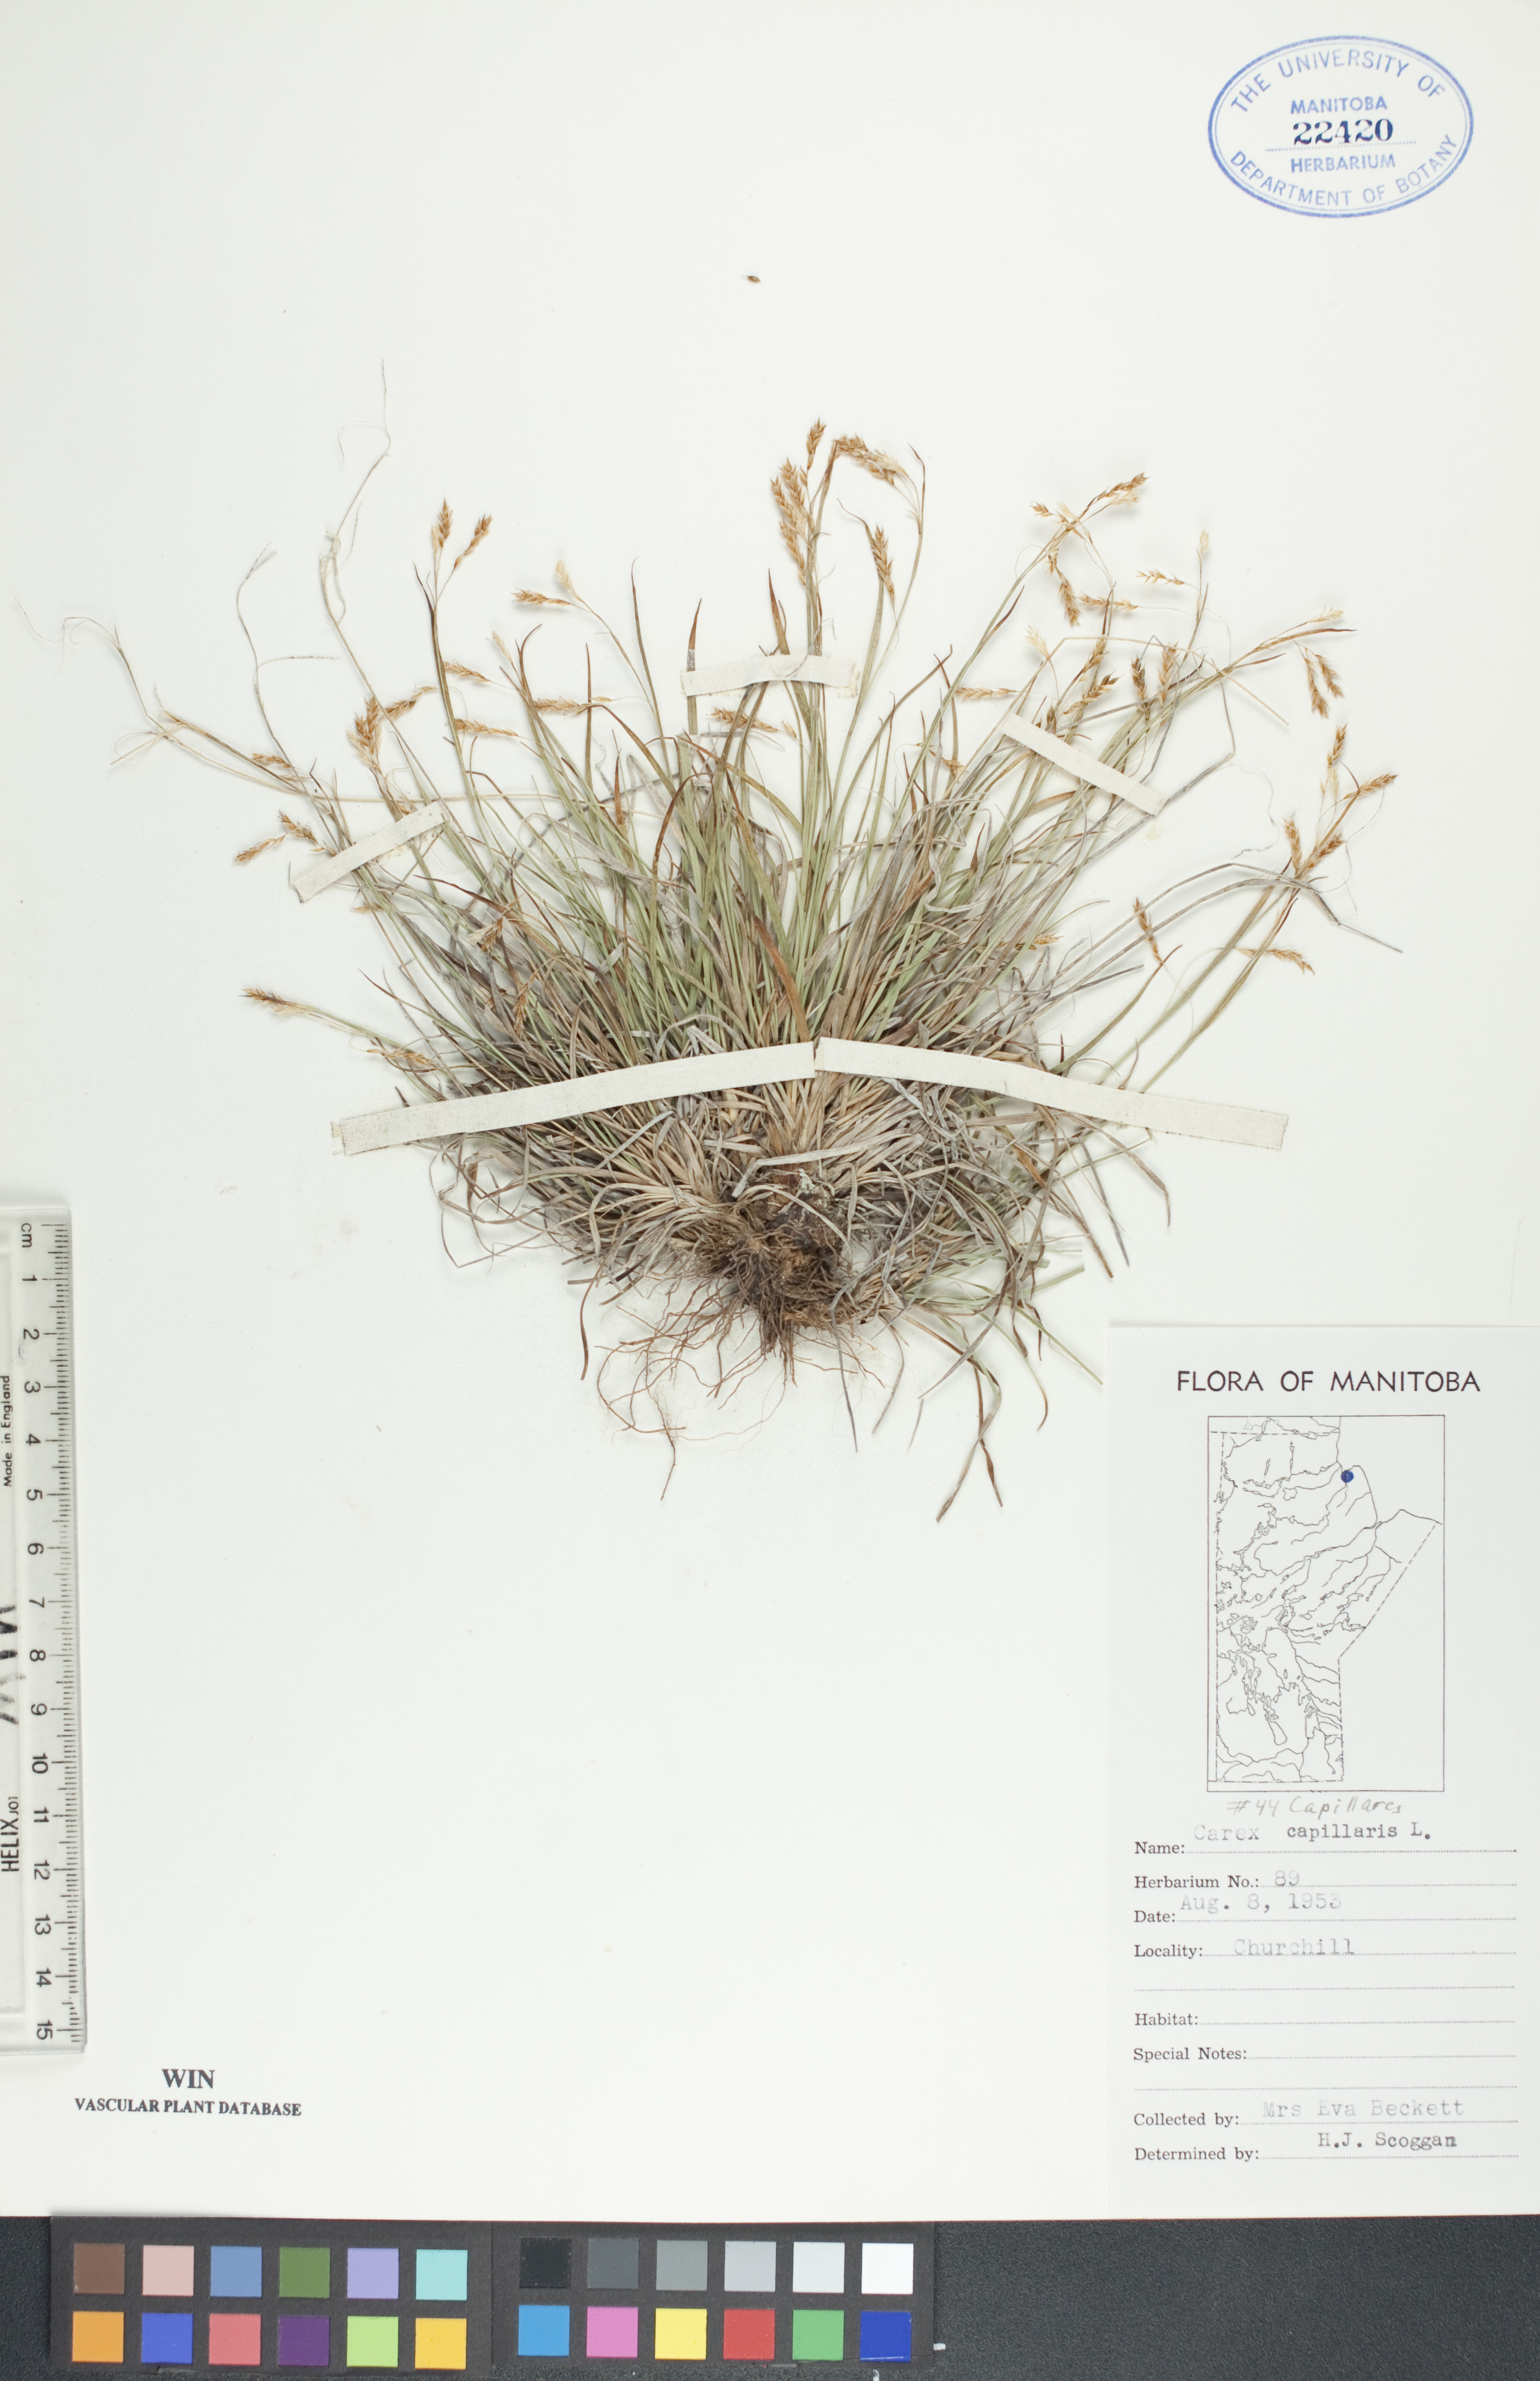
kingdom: Plantae
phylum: Tracheophyta
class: Liliopsida
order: Poales
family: Cyperaceae
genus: Carex
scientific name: Carex capillaris
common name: Hair sedge
